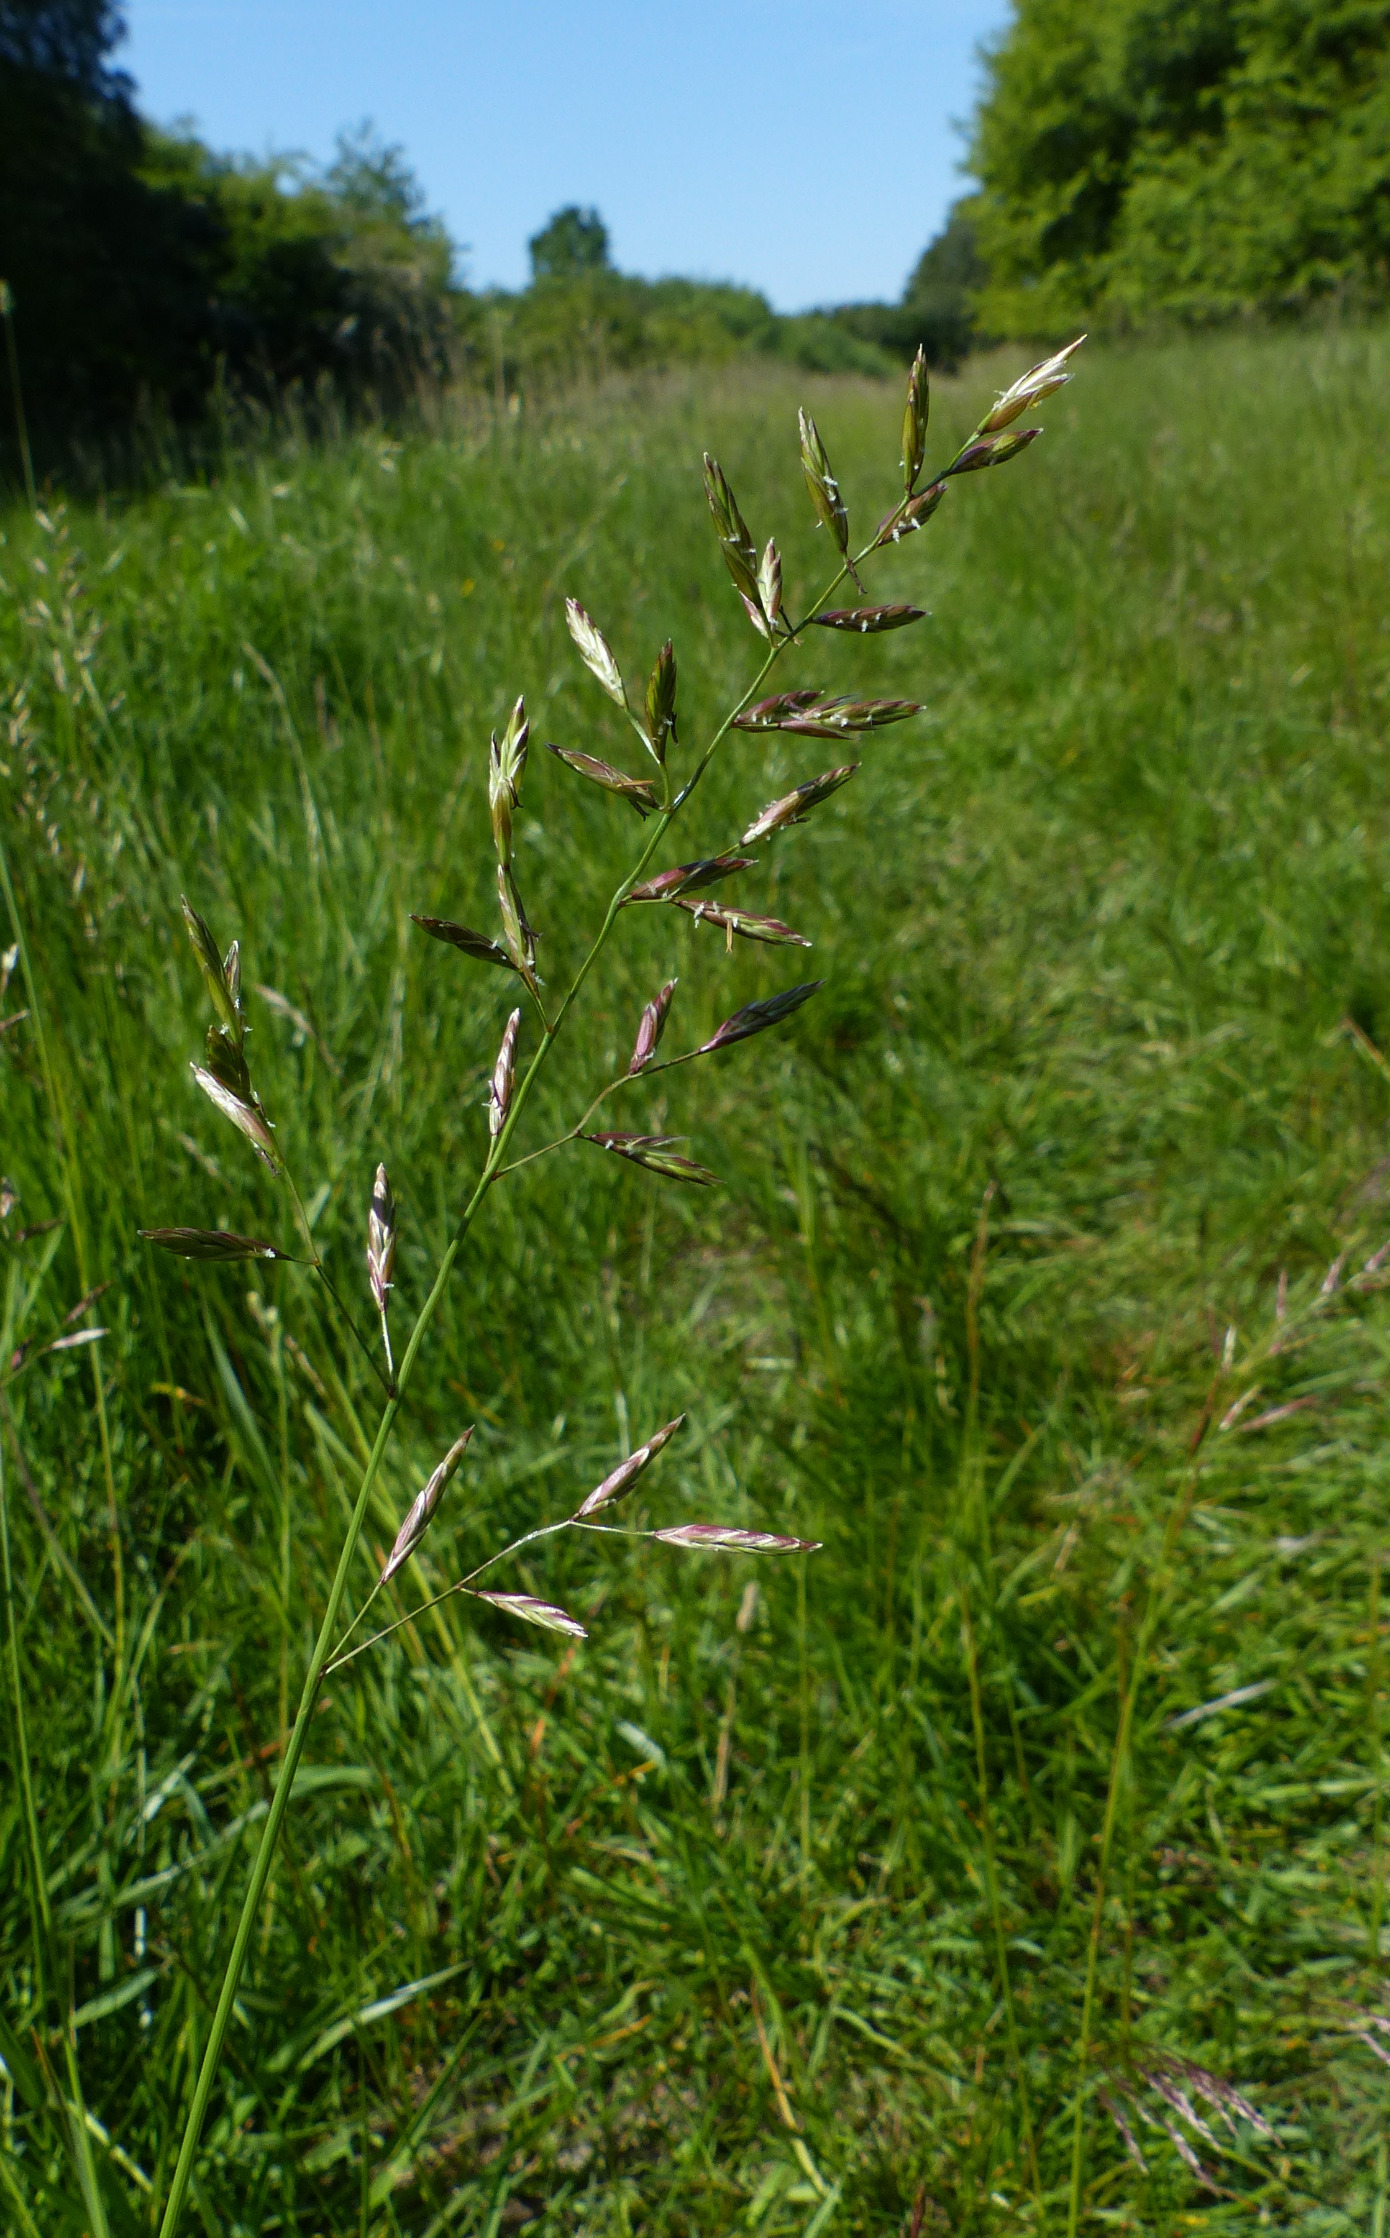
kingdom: Plantae
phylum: Tracheophyta
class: Liliopsida
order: Poales
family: Poaceae
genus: Lolium
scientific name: Lolium pratense
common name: Eng-svingel
